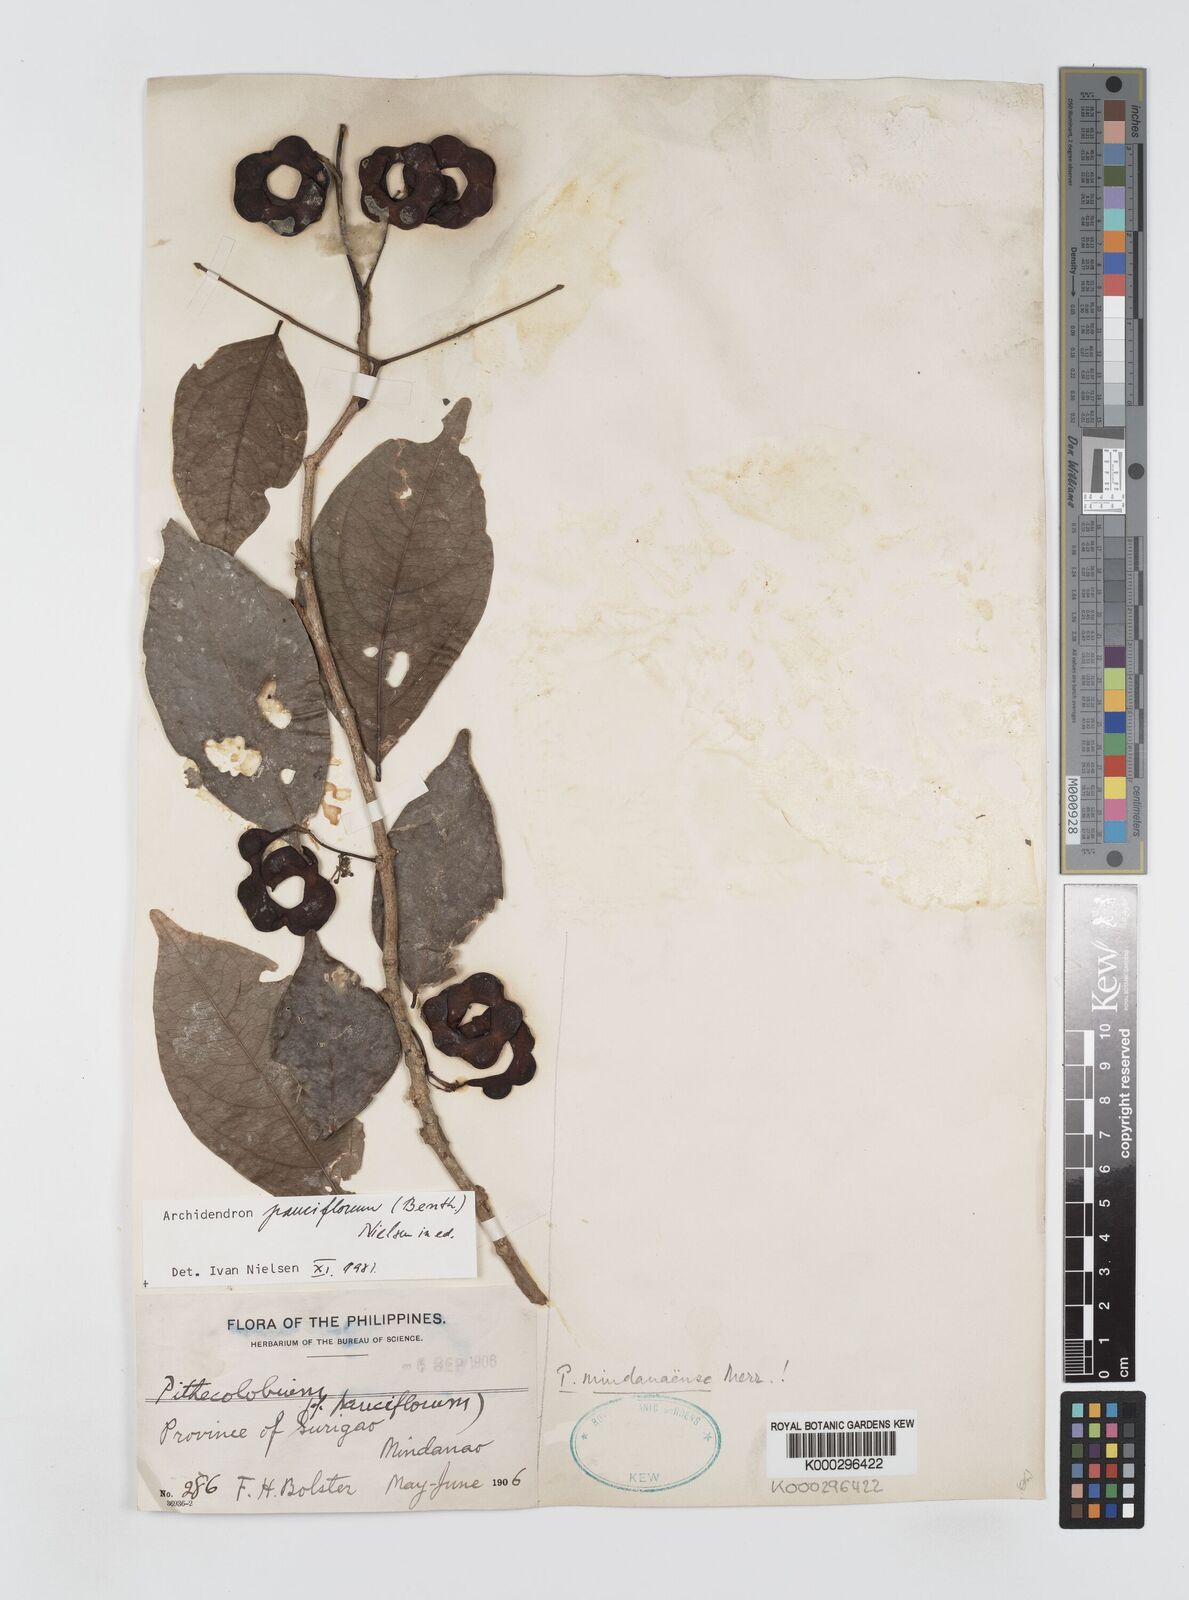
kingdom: Plantae
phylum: Tracheophyta
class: Magnoliopsida
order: Fabales
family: Fabaceae
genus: Archidendron
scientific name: Archidendron pauciflorum
